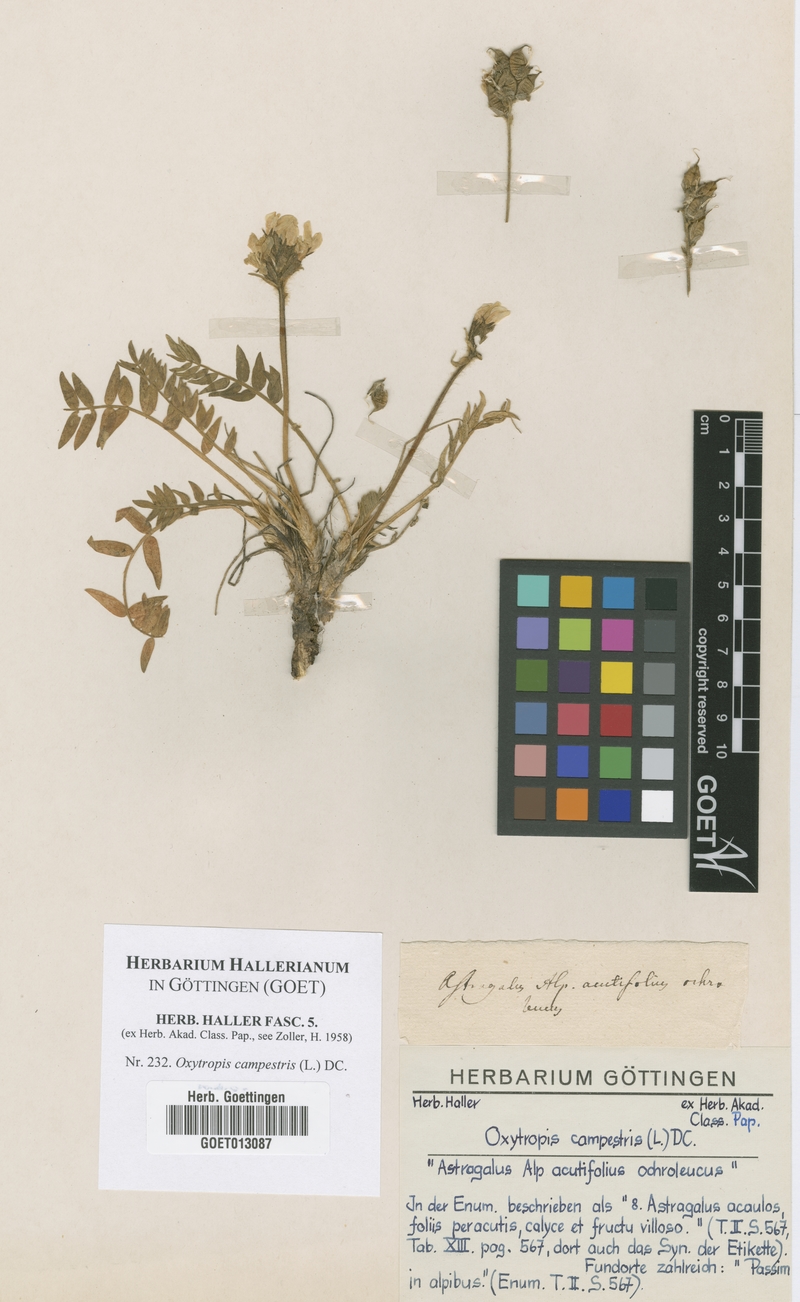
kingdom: Plantae
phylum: Tracheophyta
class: Magnoliopsida
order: Fabales
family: Fabaceae
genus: Oxytropis
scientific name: Oxytropis campestris
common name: Field locoweed
